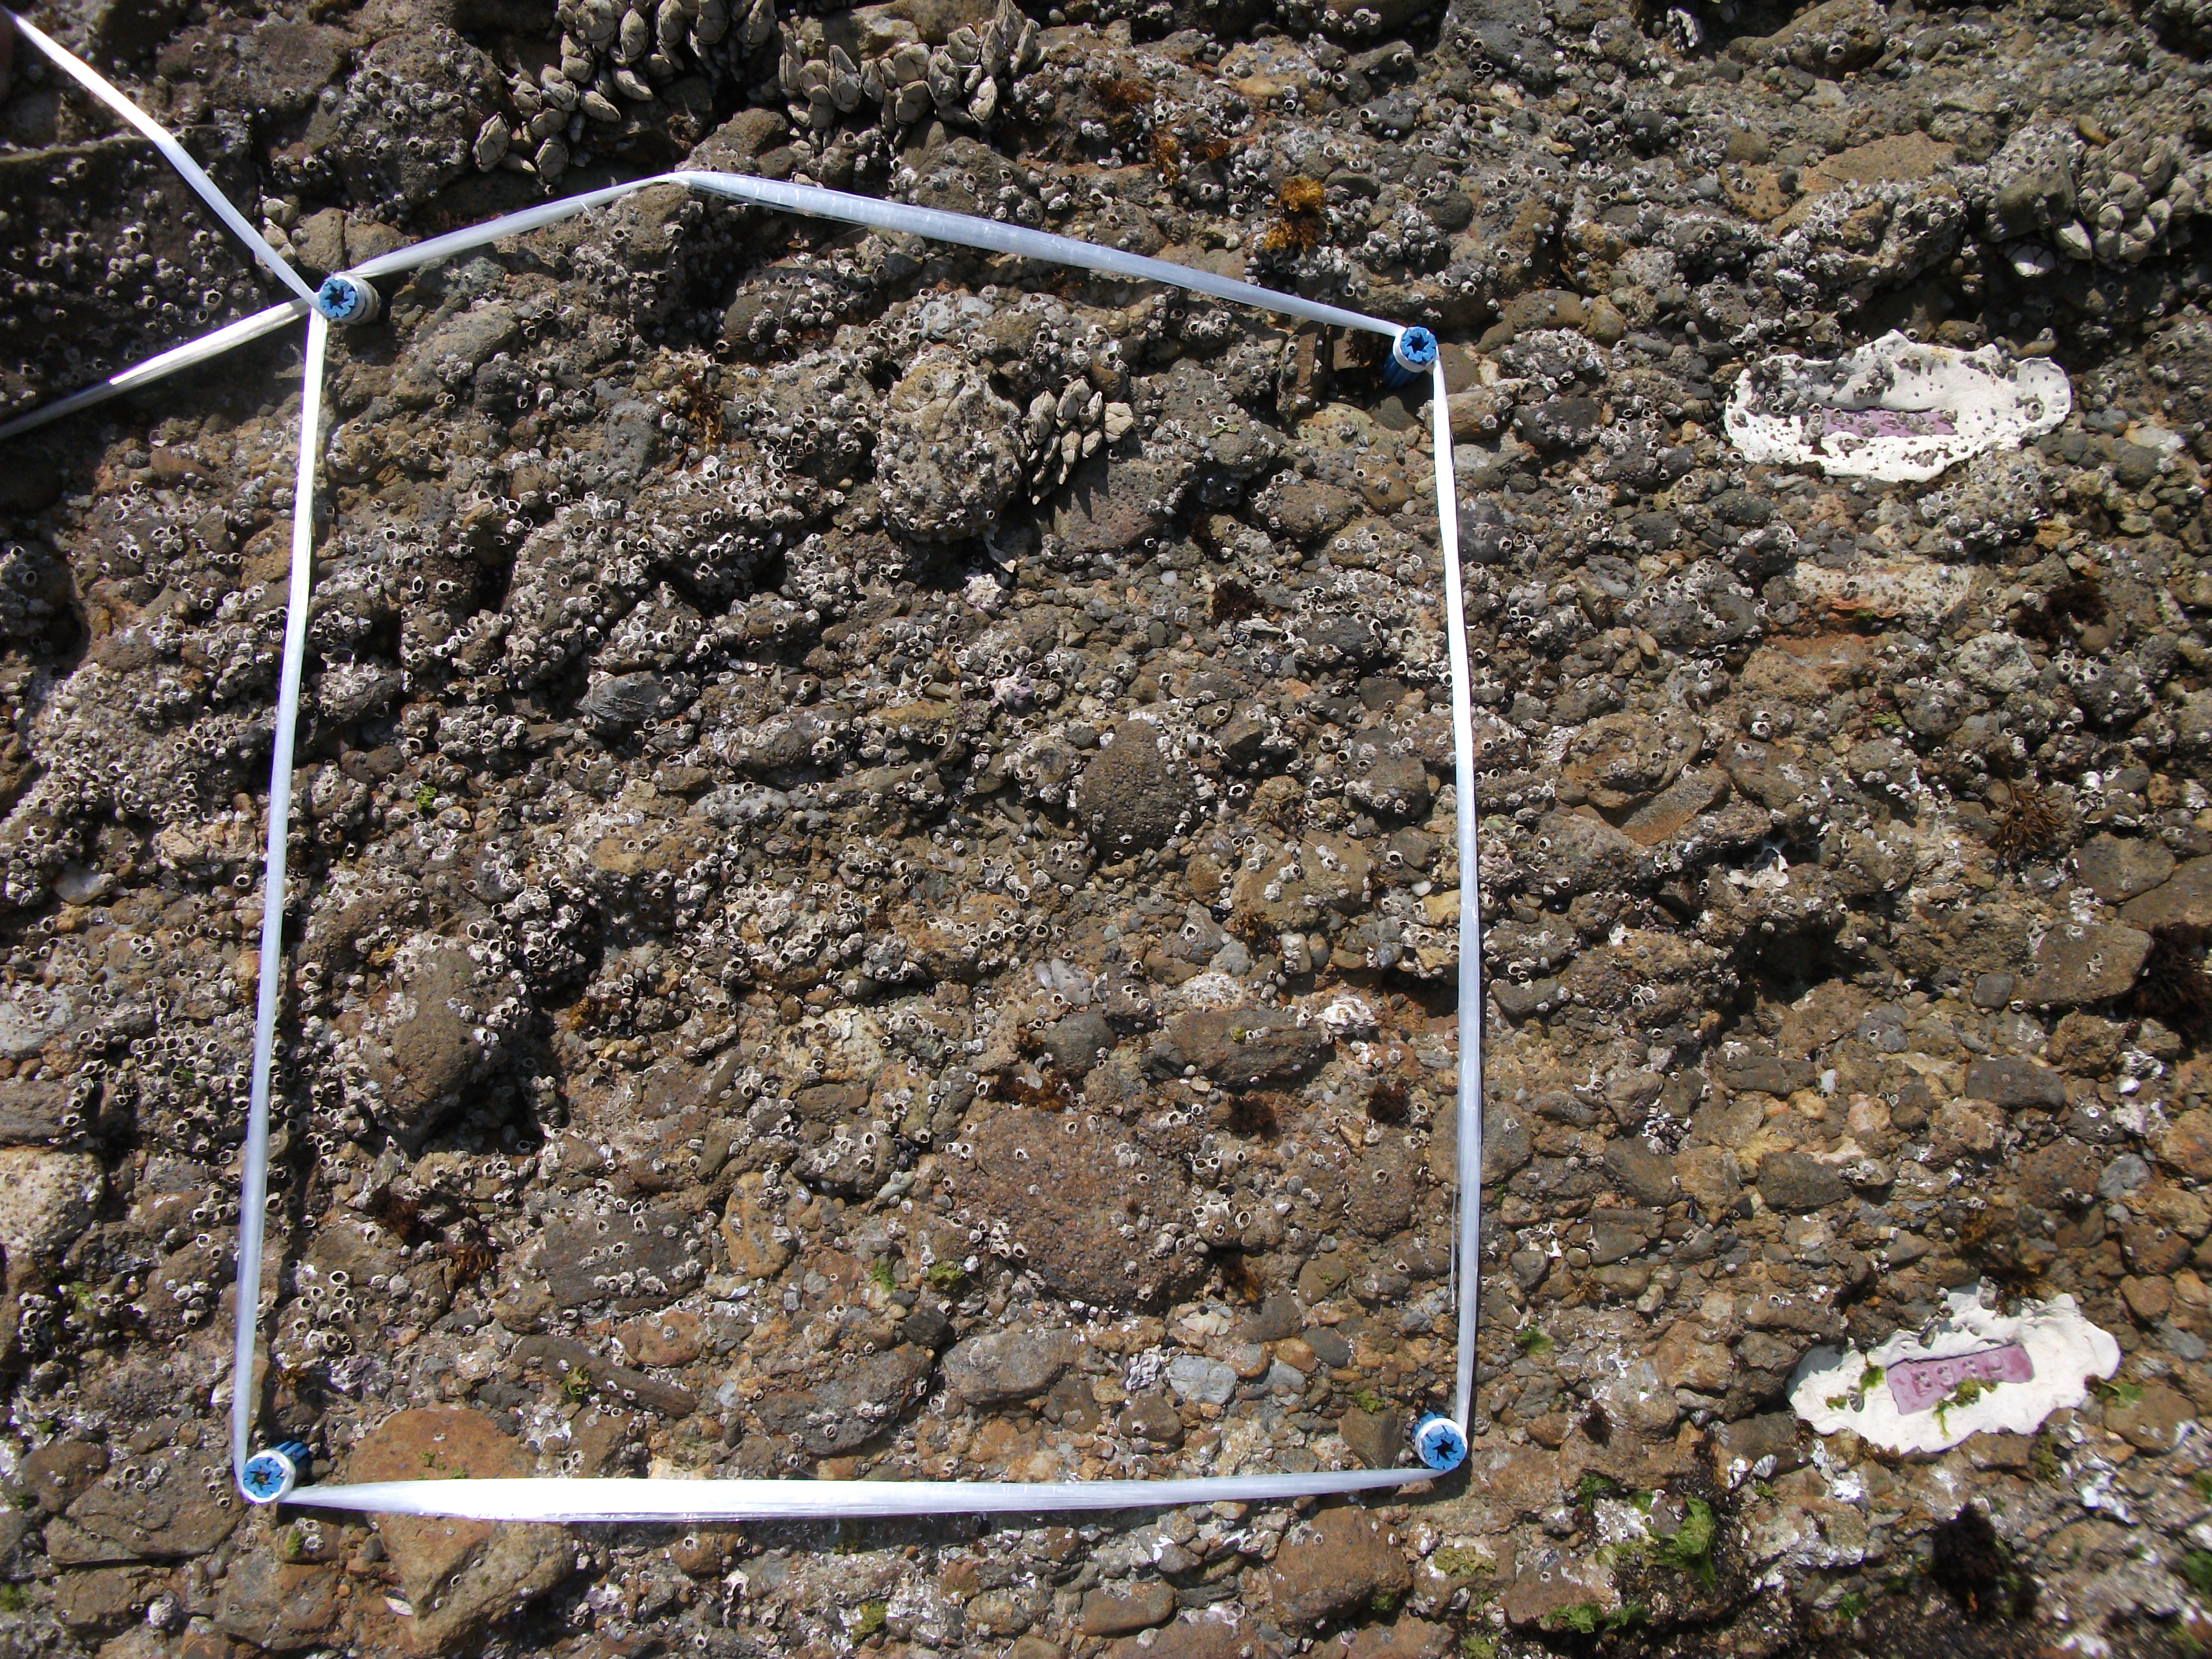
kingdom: Animalia
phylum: Arthropoda
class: Maxillopoda
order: Pedunculata
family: Pollicipedidae
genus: Capitulum
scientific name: Capitulum mitella
